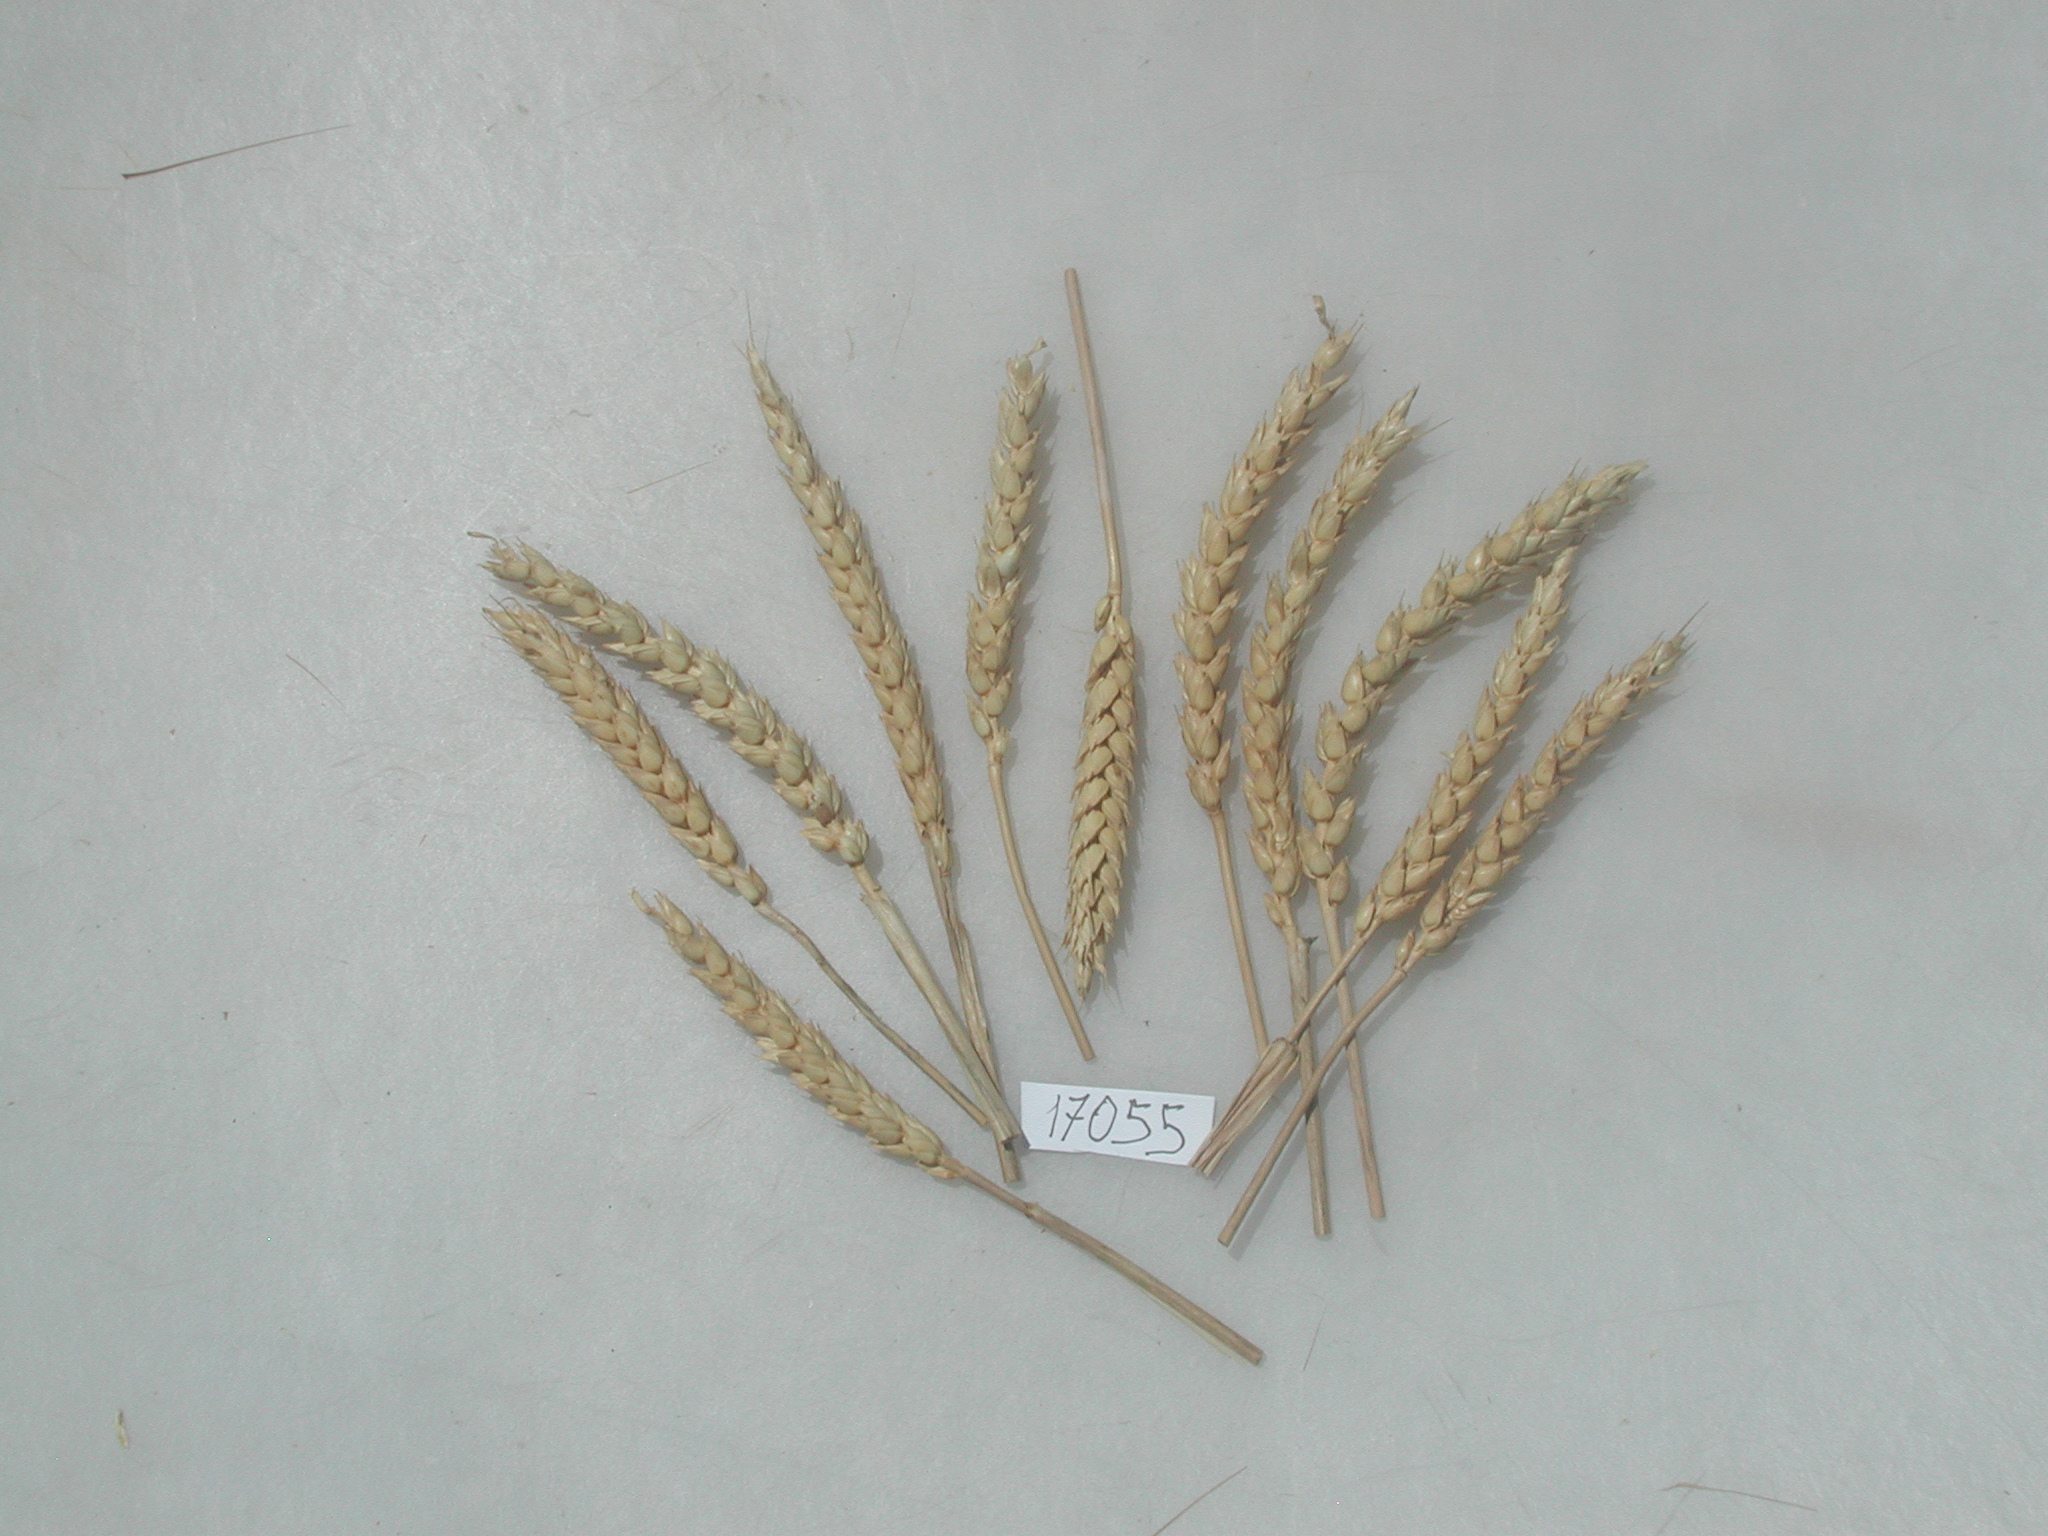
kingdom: Plantae
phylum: Tracheophyta
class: Liliopsida
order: Poales
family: Poaceae
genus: Triticum
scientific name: Triticum
